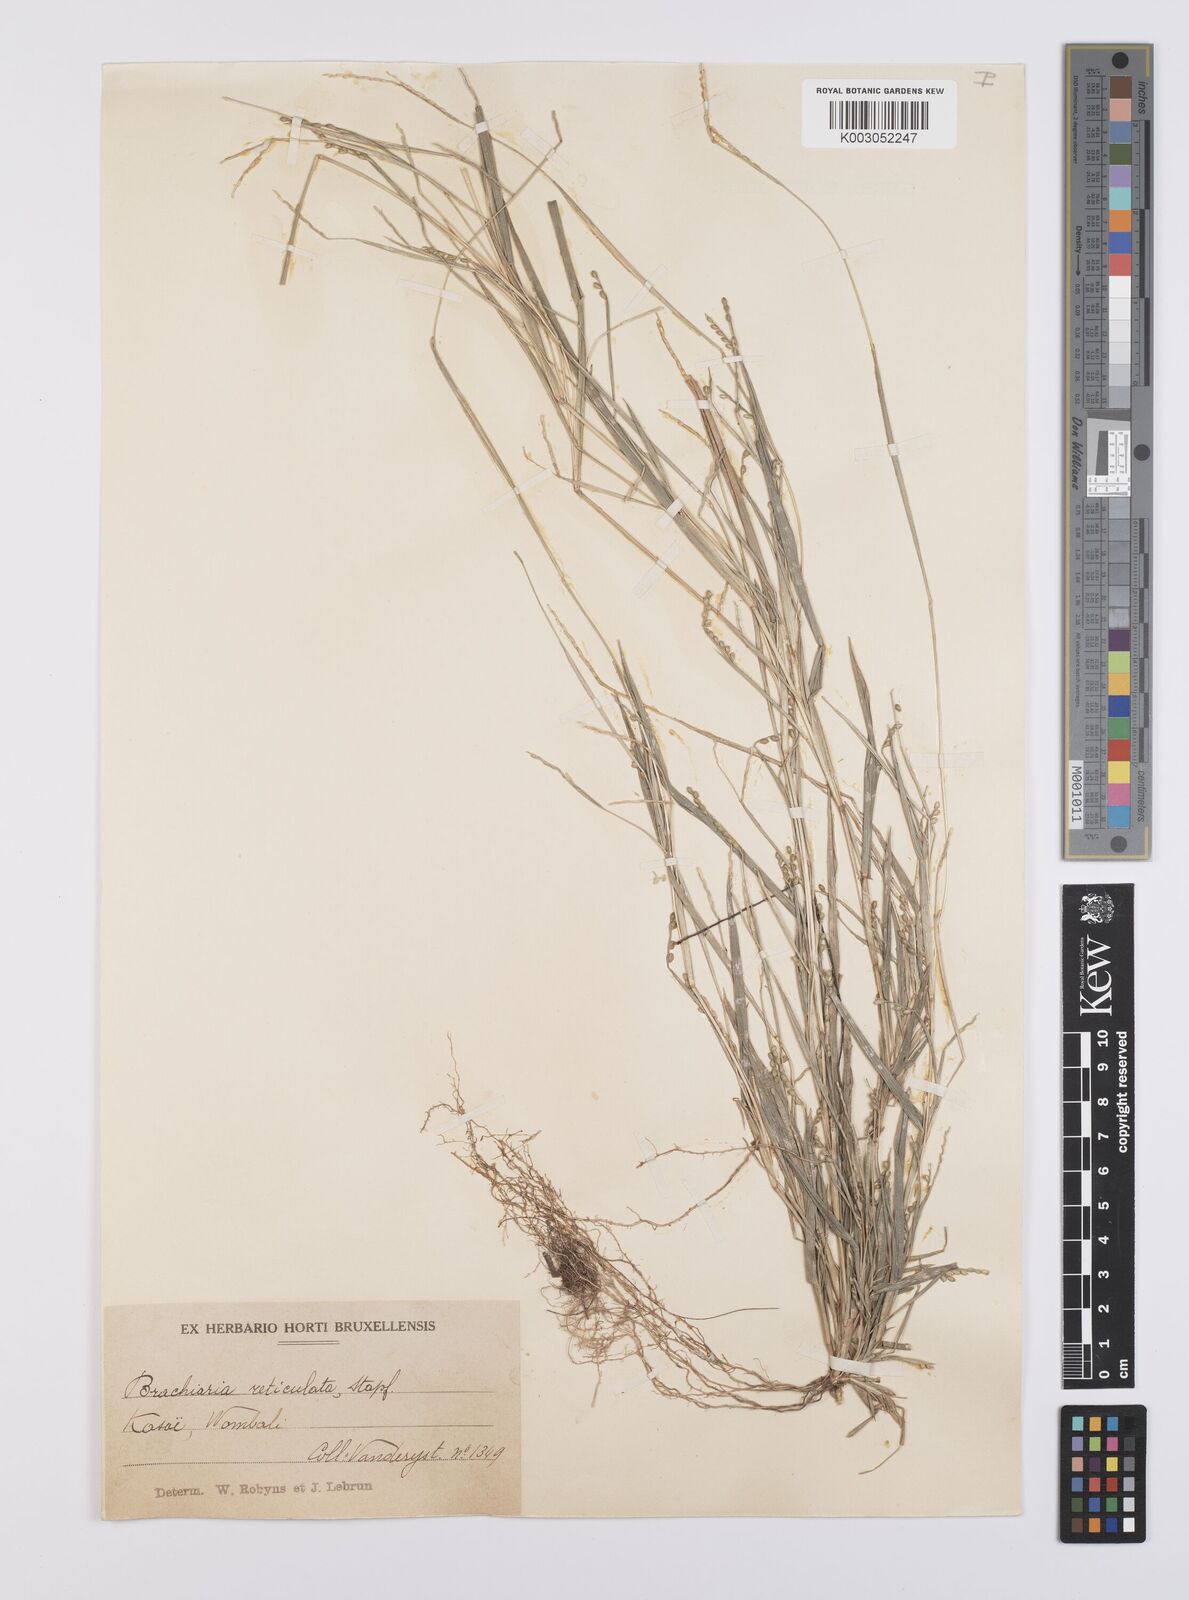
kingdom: Plantae
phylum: Tracheophyta
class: Liliopsida
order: Poales
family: Poaceae
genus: Urochloa
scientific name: Urochloa reticulata
